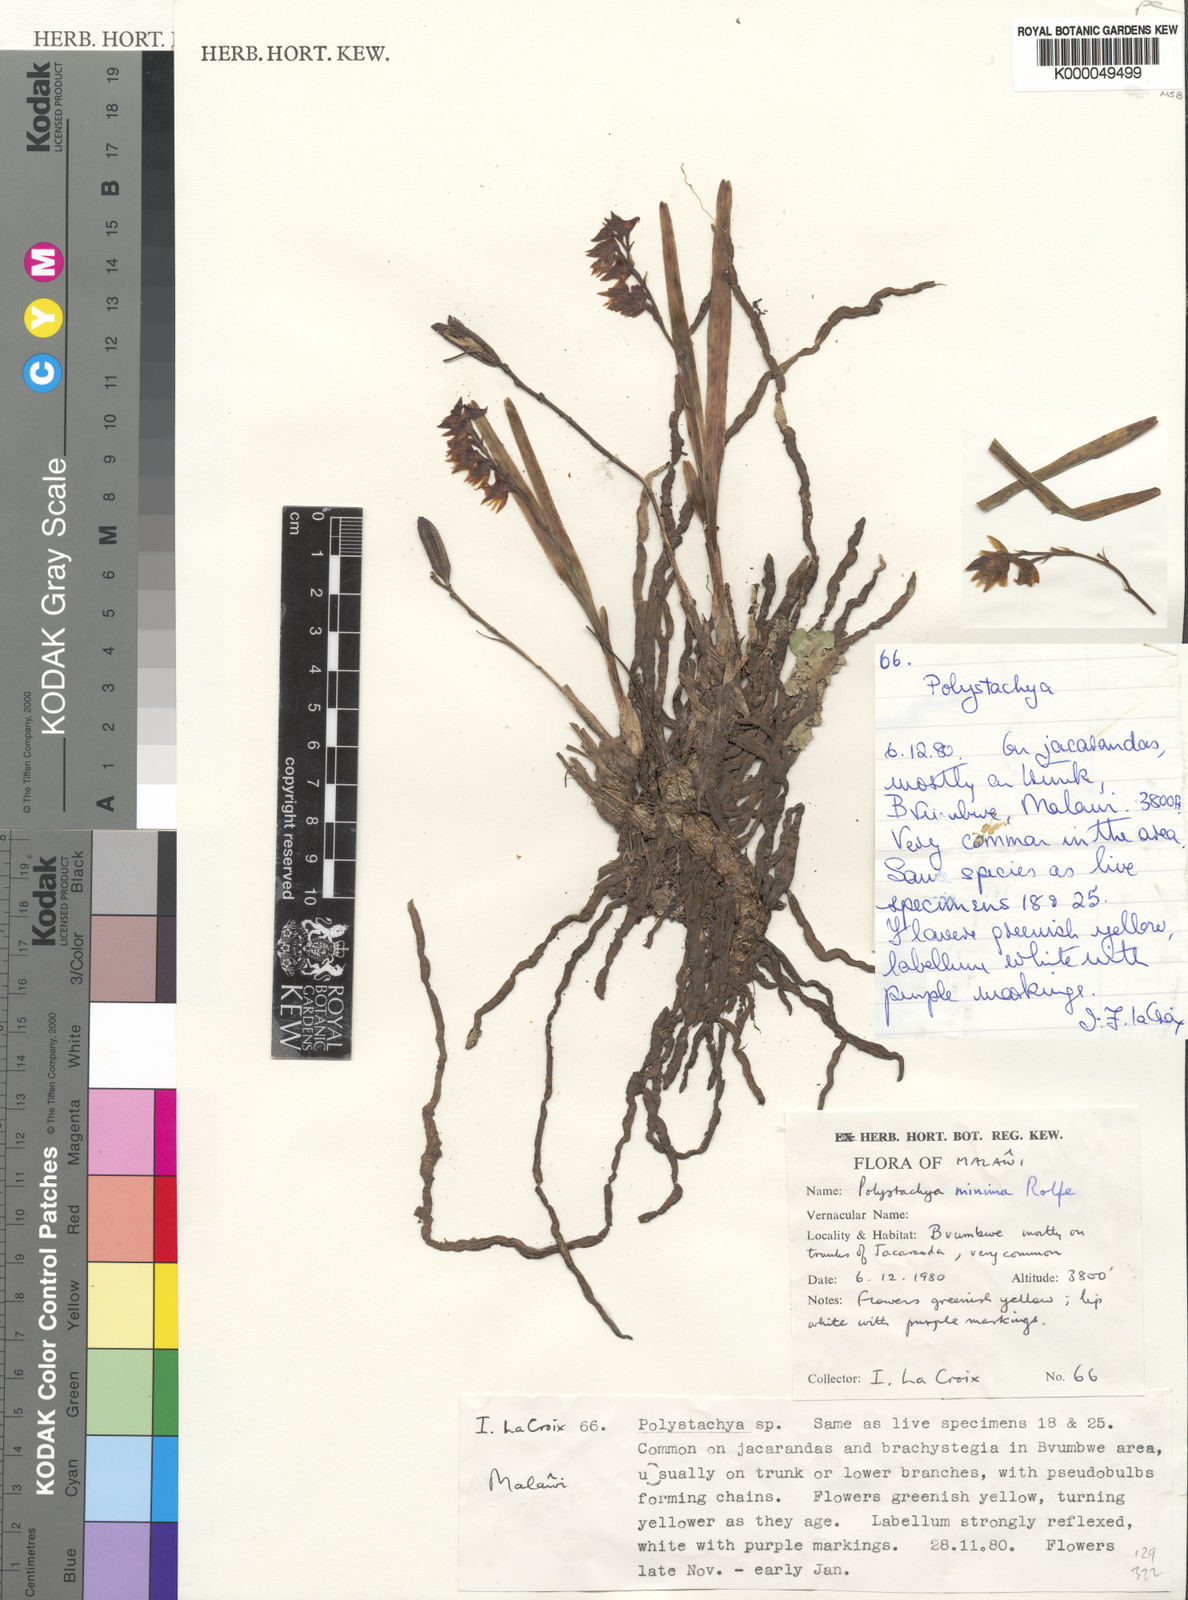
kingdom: Plantae
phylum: Tracheophyta
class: Liliopsida
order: Asparagales
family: Orchidaceae
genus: Polystachya
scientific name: Polystachya minima
